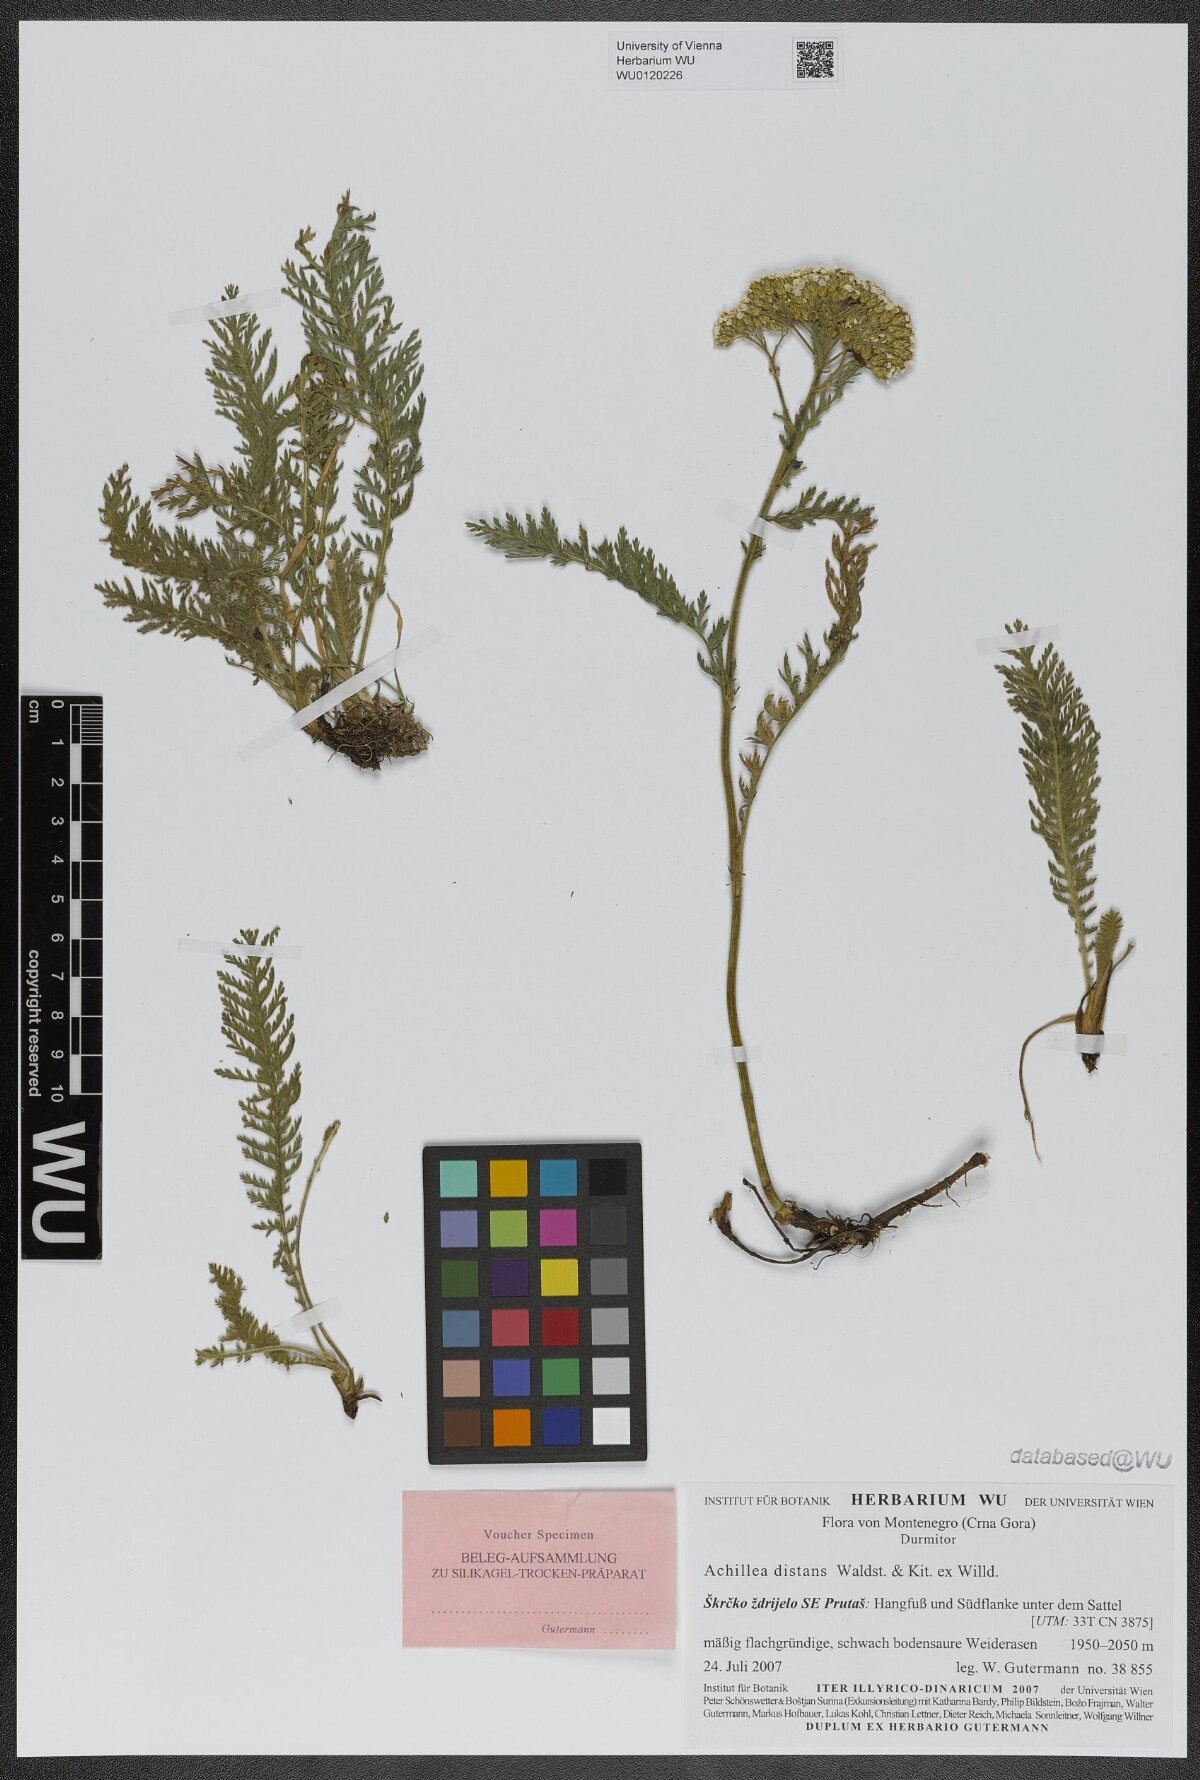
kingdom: Plantae
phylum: Tracheophyta
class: Magnoliopsida
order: Asterales
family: Asteraceae
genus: Achillea
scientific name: Achillea distans
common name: Tall yarrow
